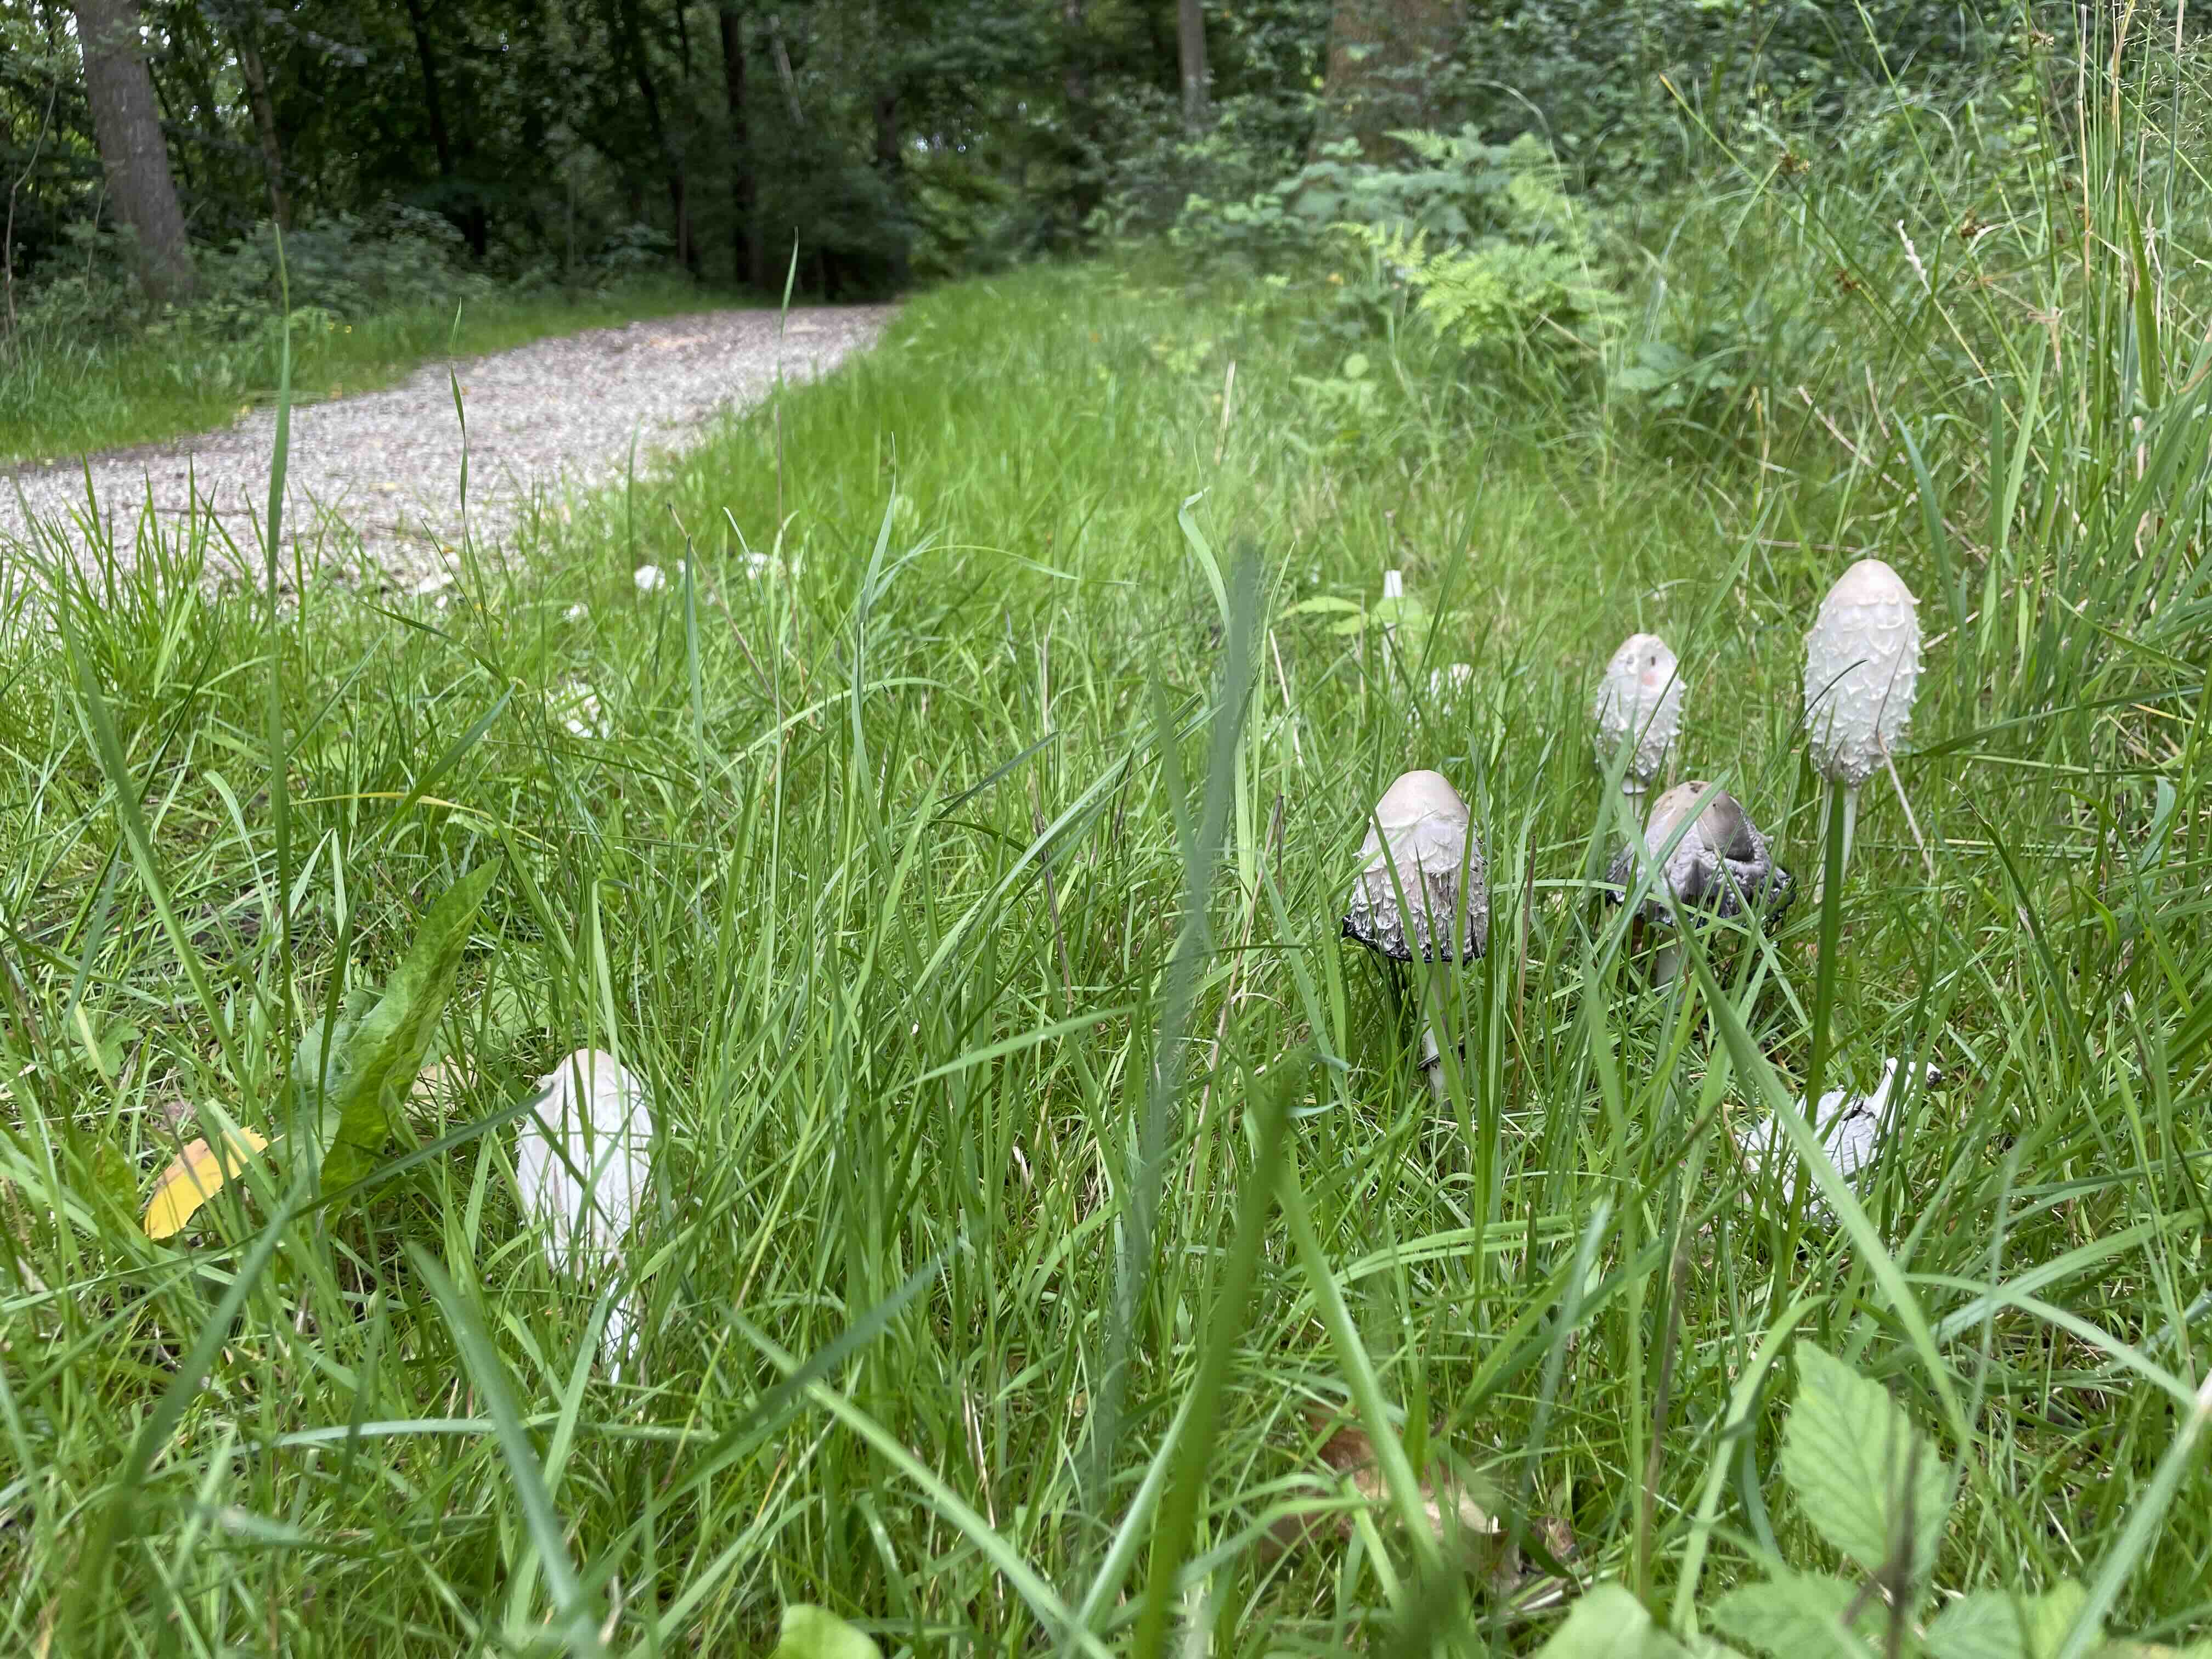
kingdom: Fungi
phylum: Basidiomycota
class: Agaricomycetes
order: Agaricales
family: Agaricaceae
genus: Coprinus
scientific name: Coprinus comatus
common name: stor parykhat
